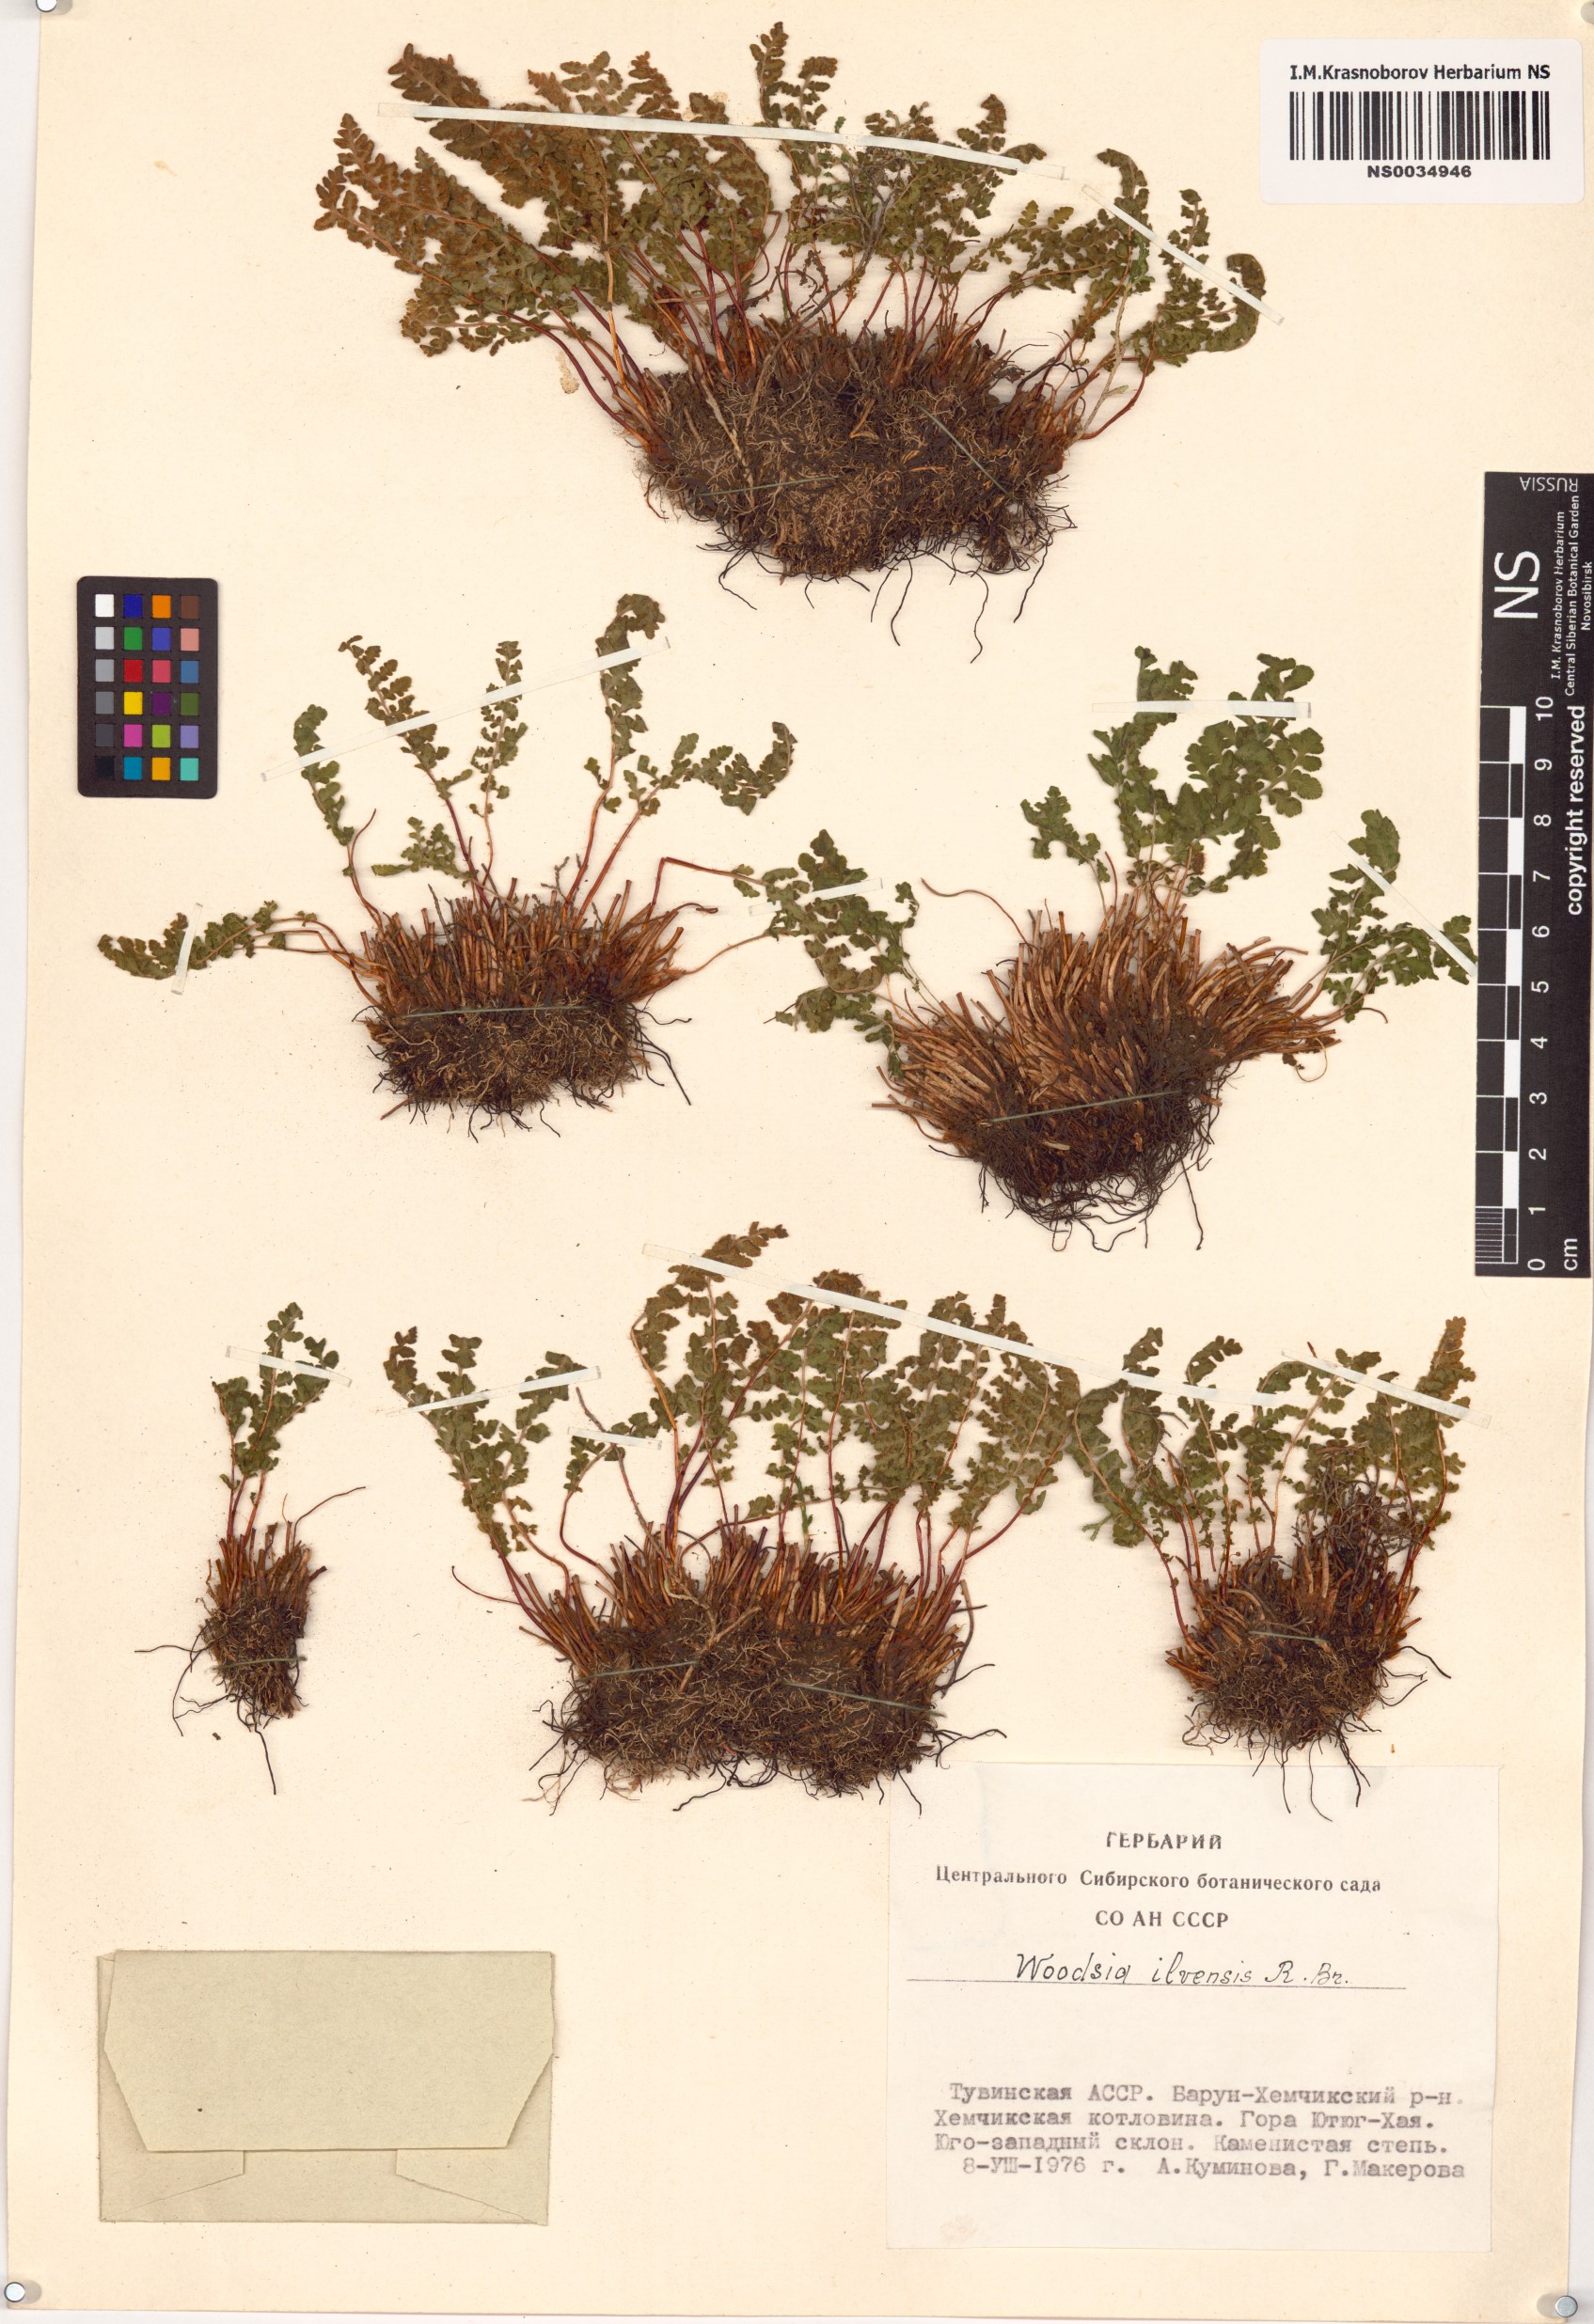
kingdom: Plantae
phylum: Tracheophyta
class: Polypodiopsida
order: Polypodiales
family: Woodsiaceae
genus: Woodsia
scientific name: Woodsia ilvensis
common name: Fragrant woodsia
